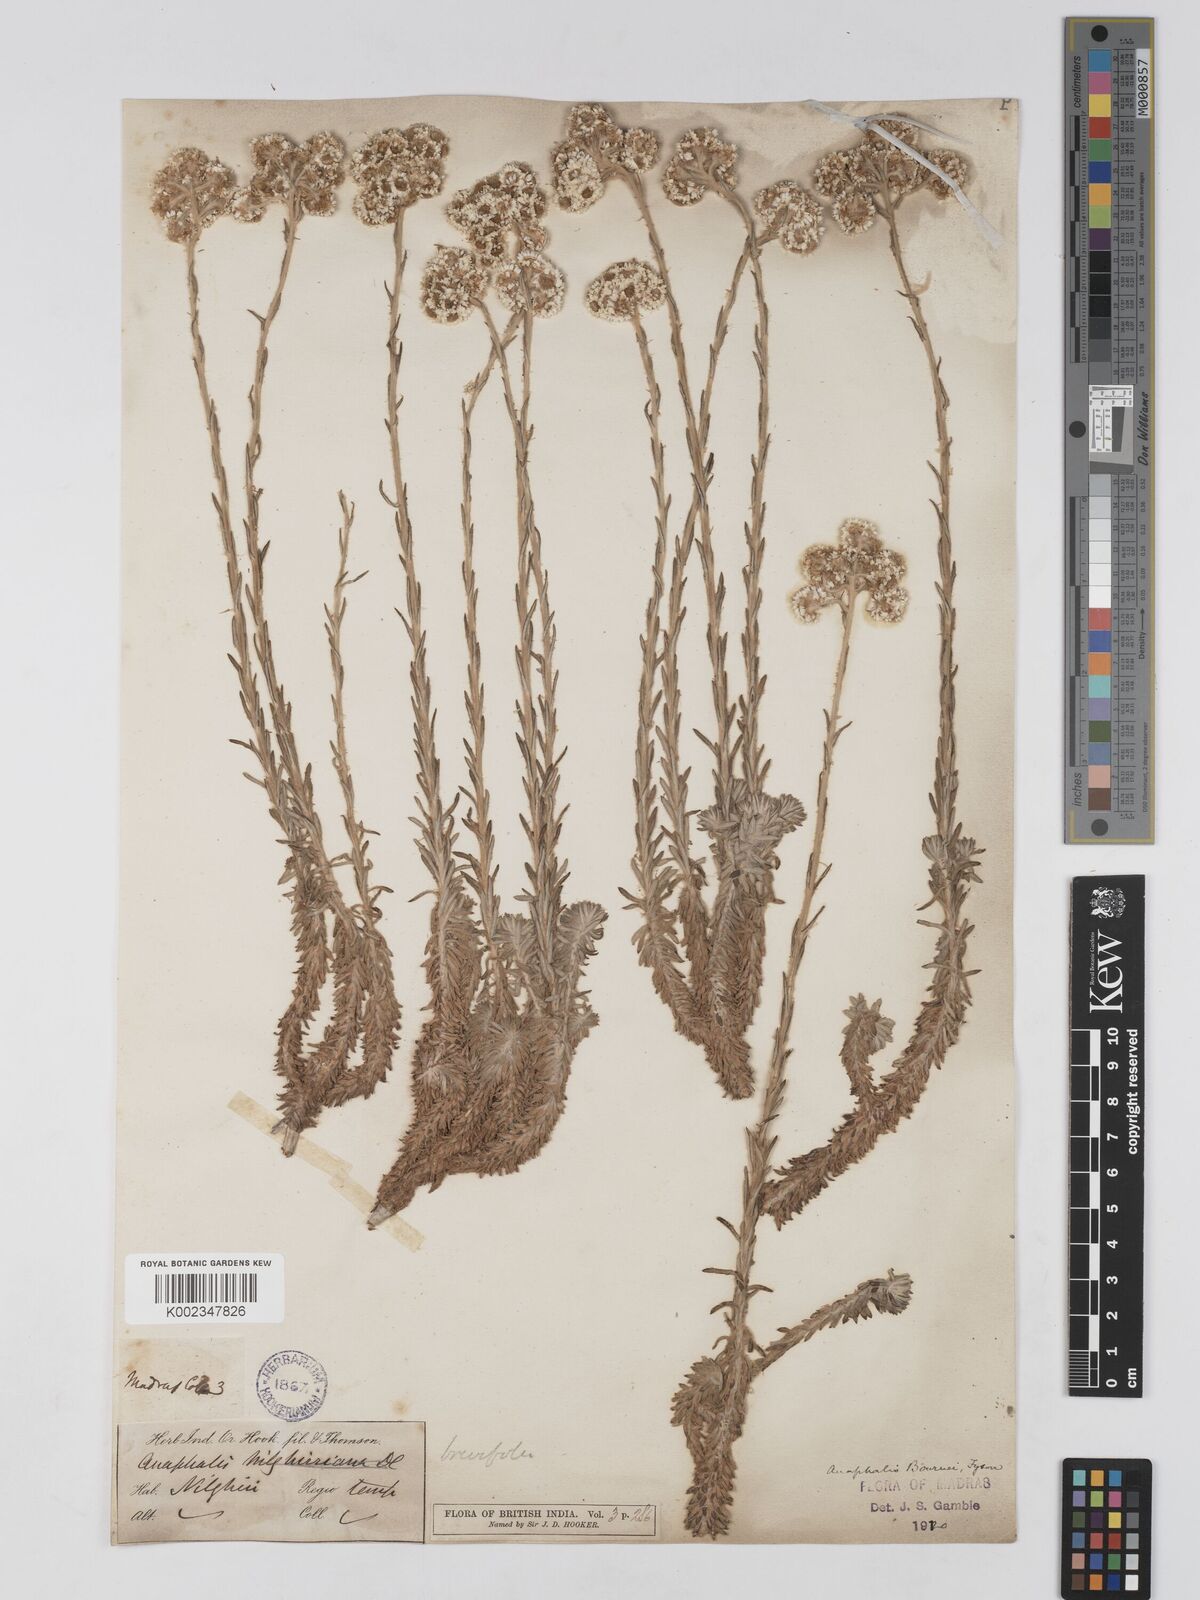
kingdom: Plantae
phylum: Tracheophyta
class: Magnoliopsida
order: Asterales
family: Asteraceae
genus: Anaphalis
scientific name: Anaphalis brevifolia
